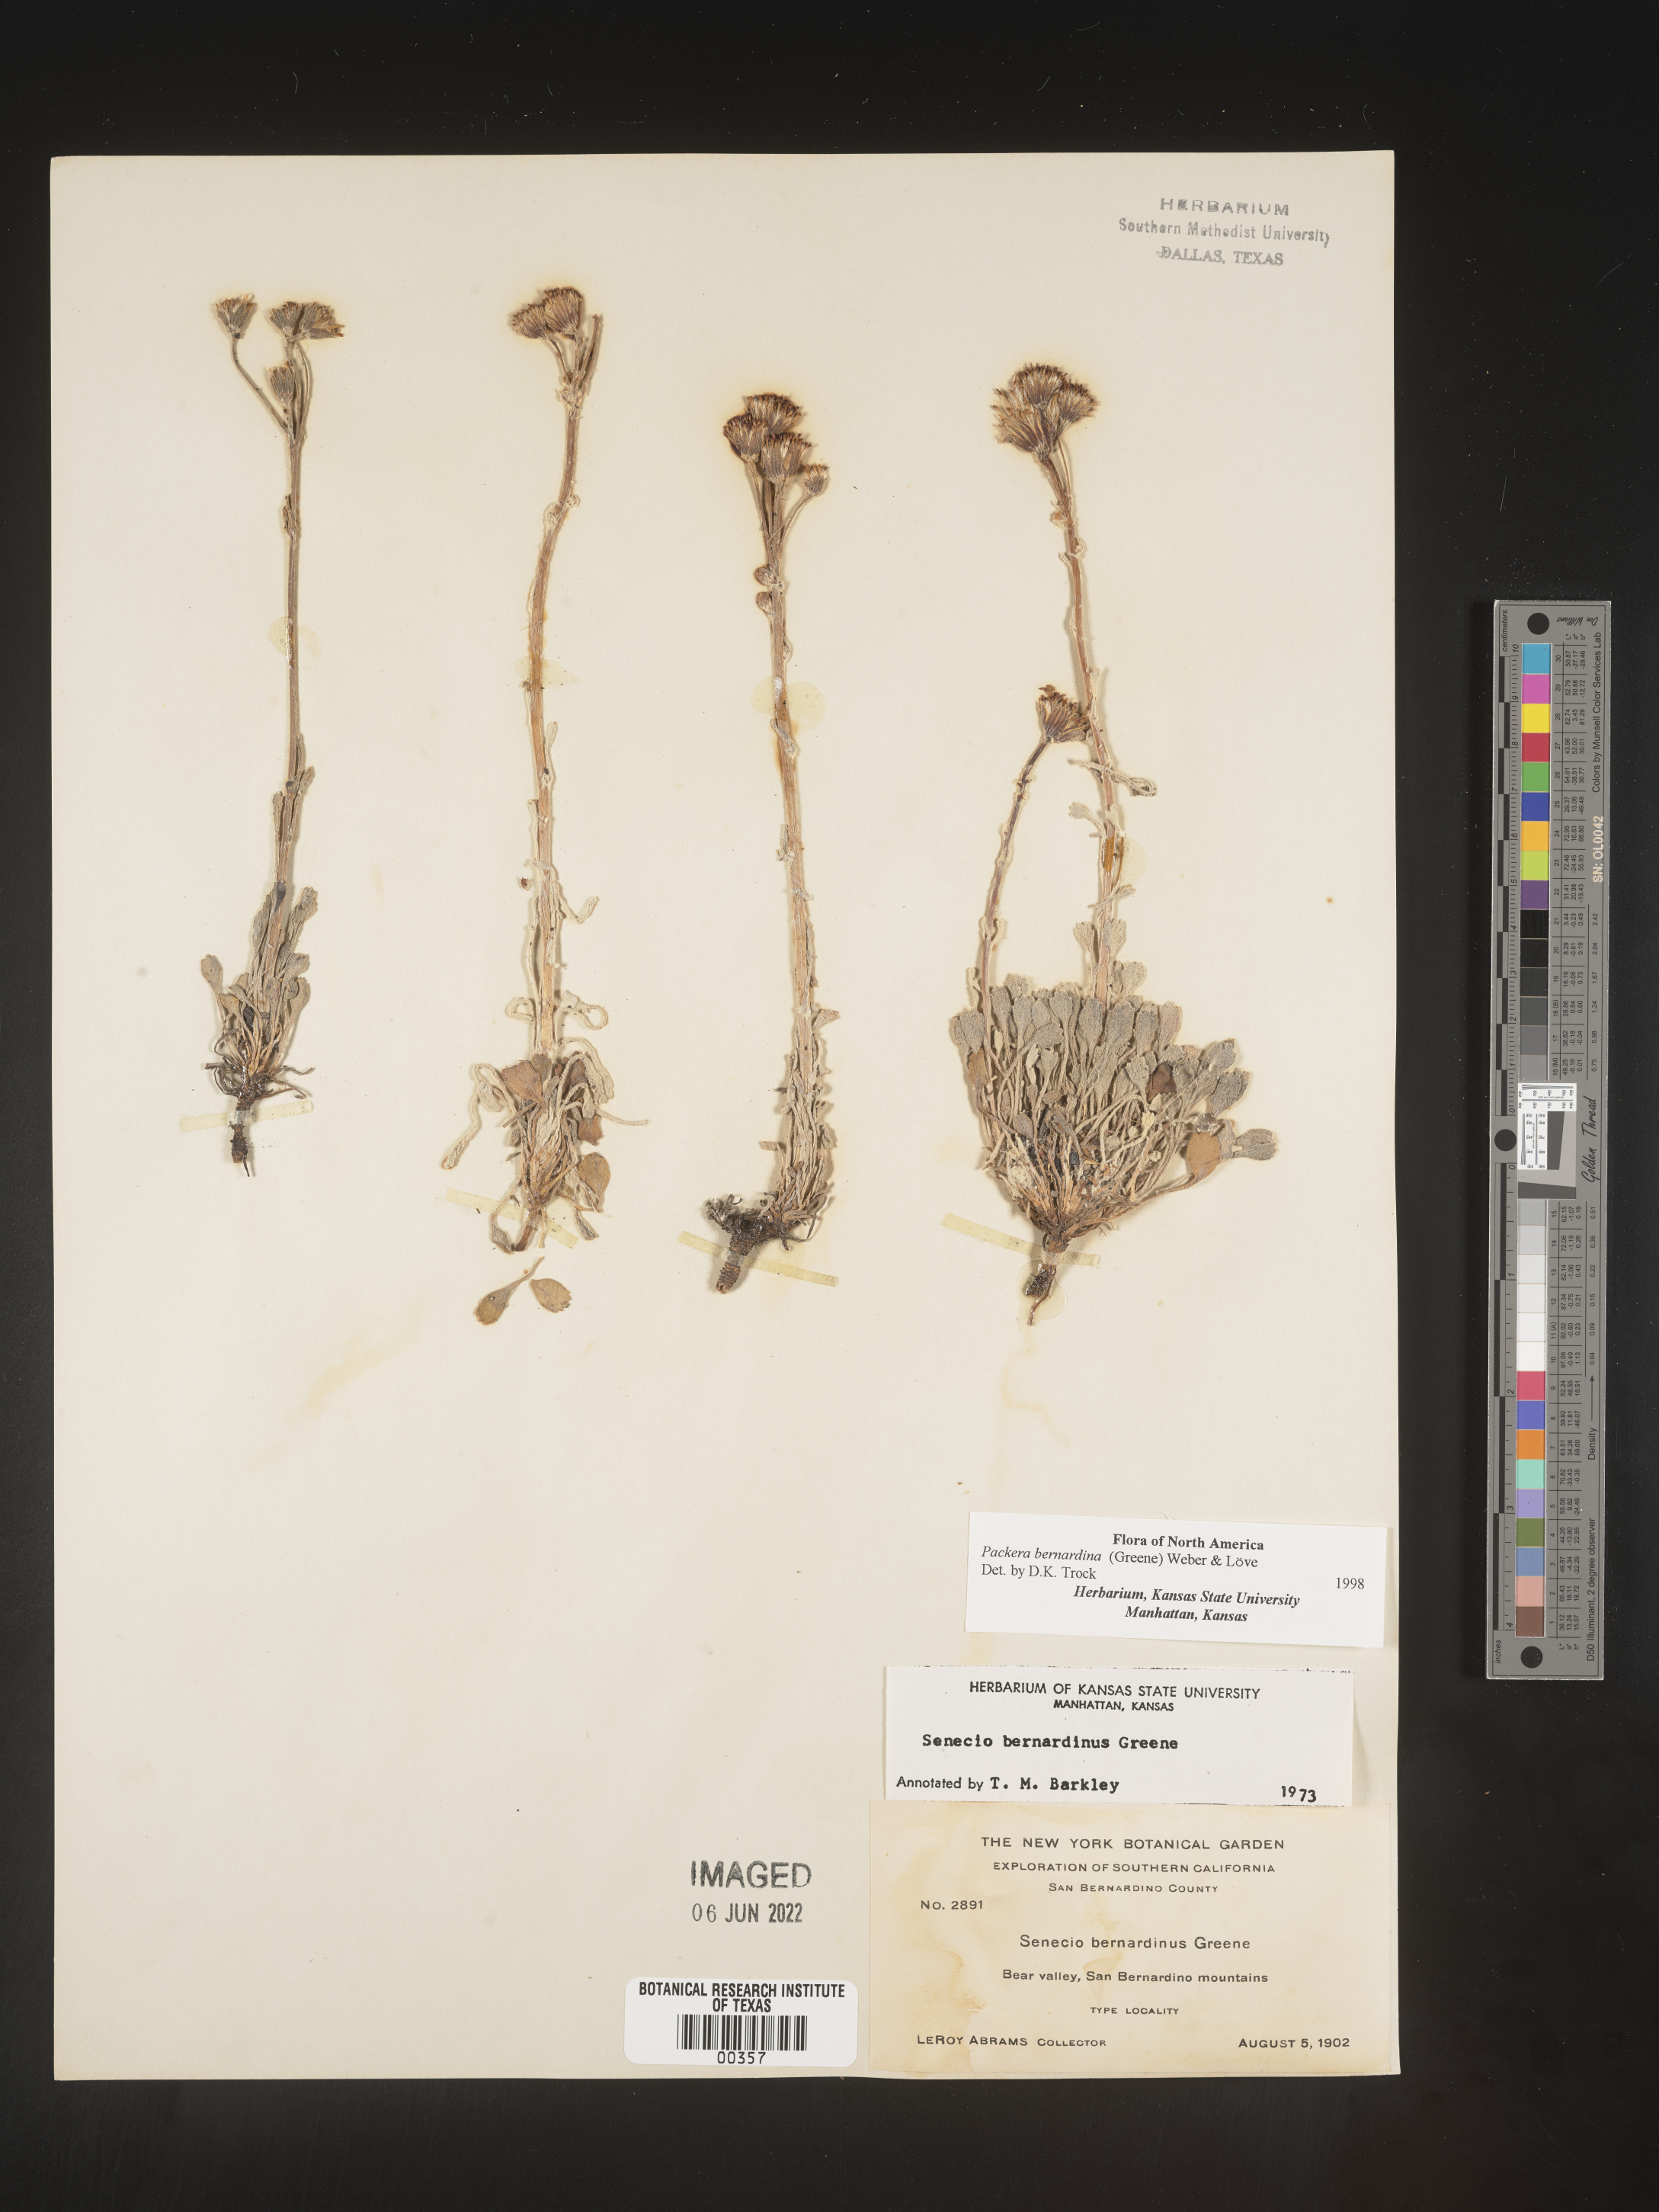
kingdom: Plantae
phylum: Tracheophyta
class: Magnoliopsida
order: Asterales
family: Asteraceae
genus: Packera
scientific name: Packera bernardina
